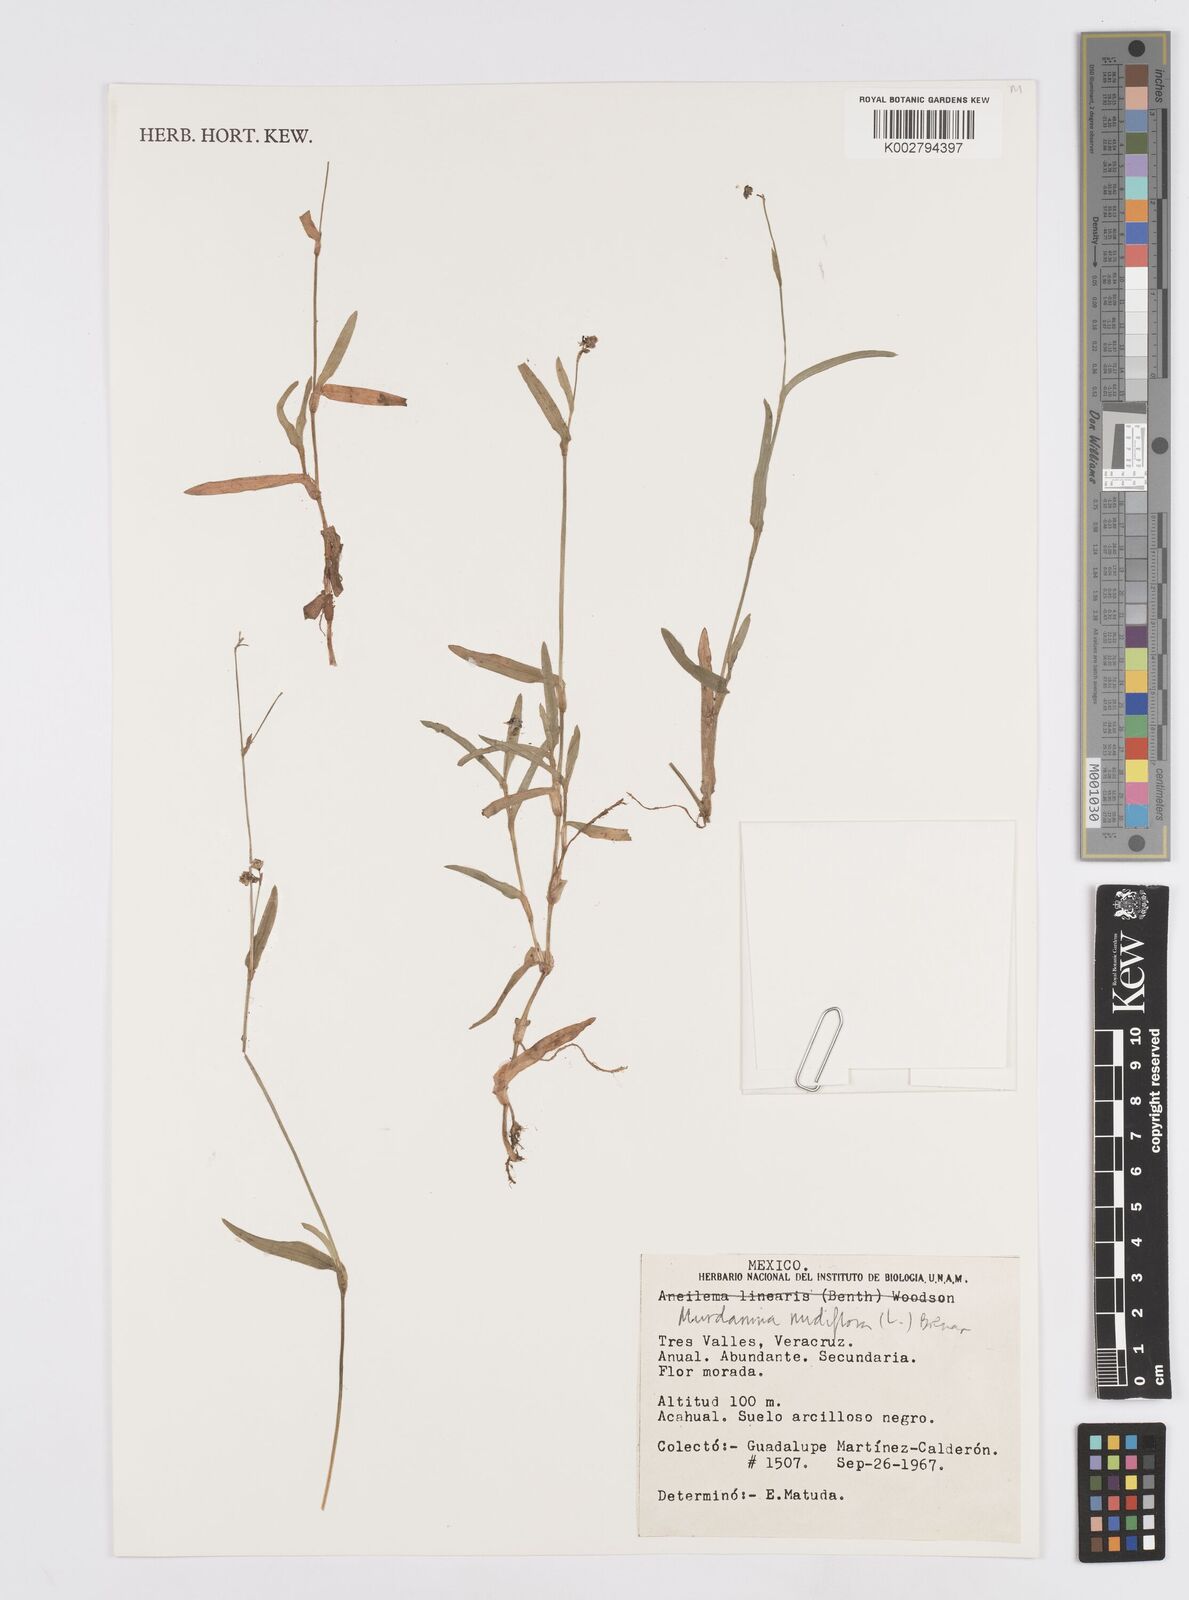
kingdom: Plantae
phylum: Tracheophyta
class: Liliopsida
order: Commelinales
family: Commelinaceae
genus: Murdannia
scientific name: Murdannia nudiflora
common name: Nakedstem dewflower
